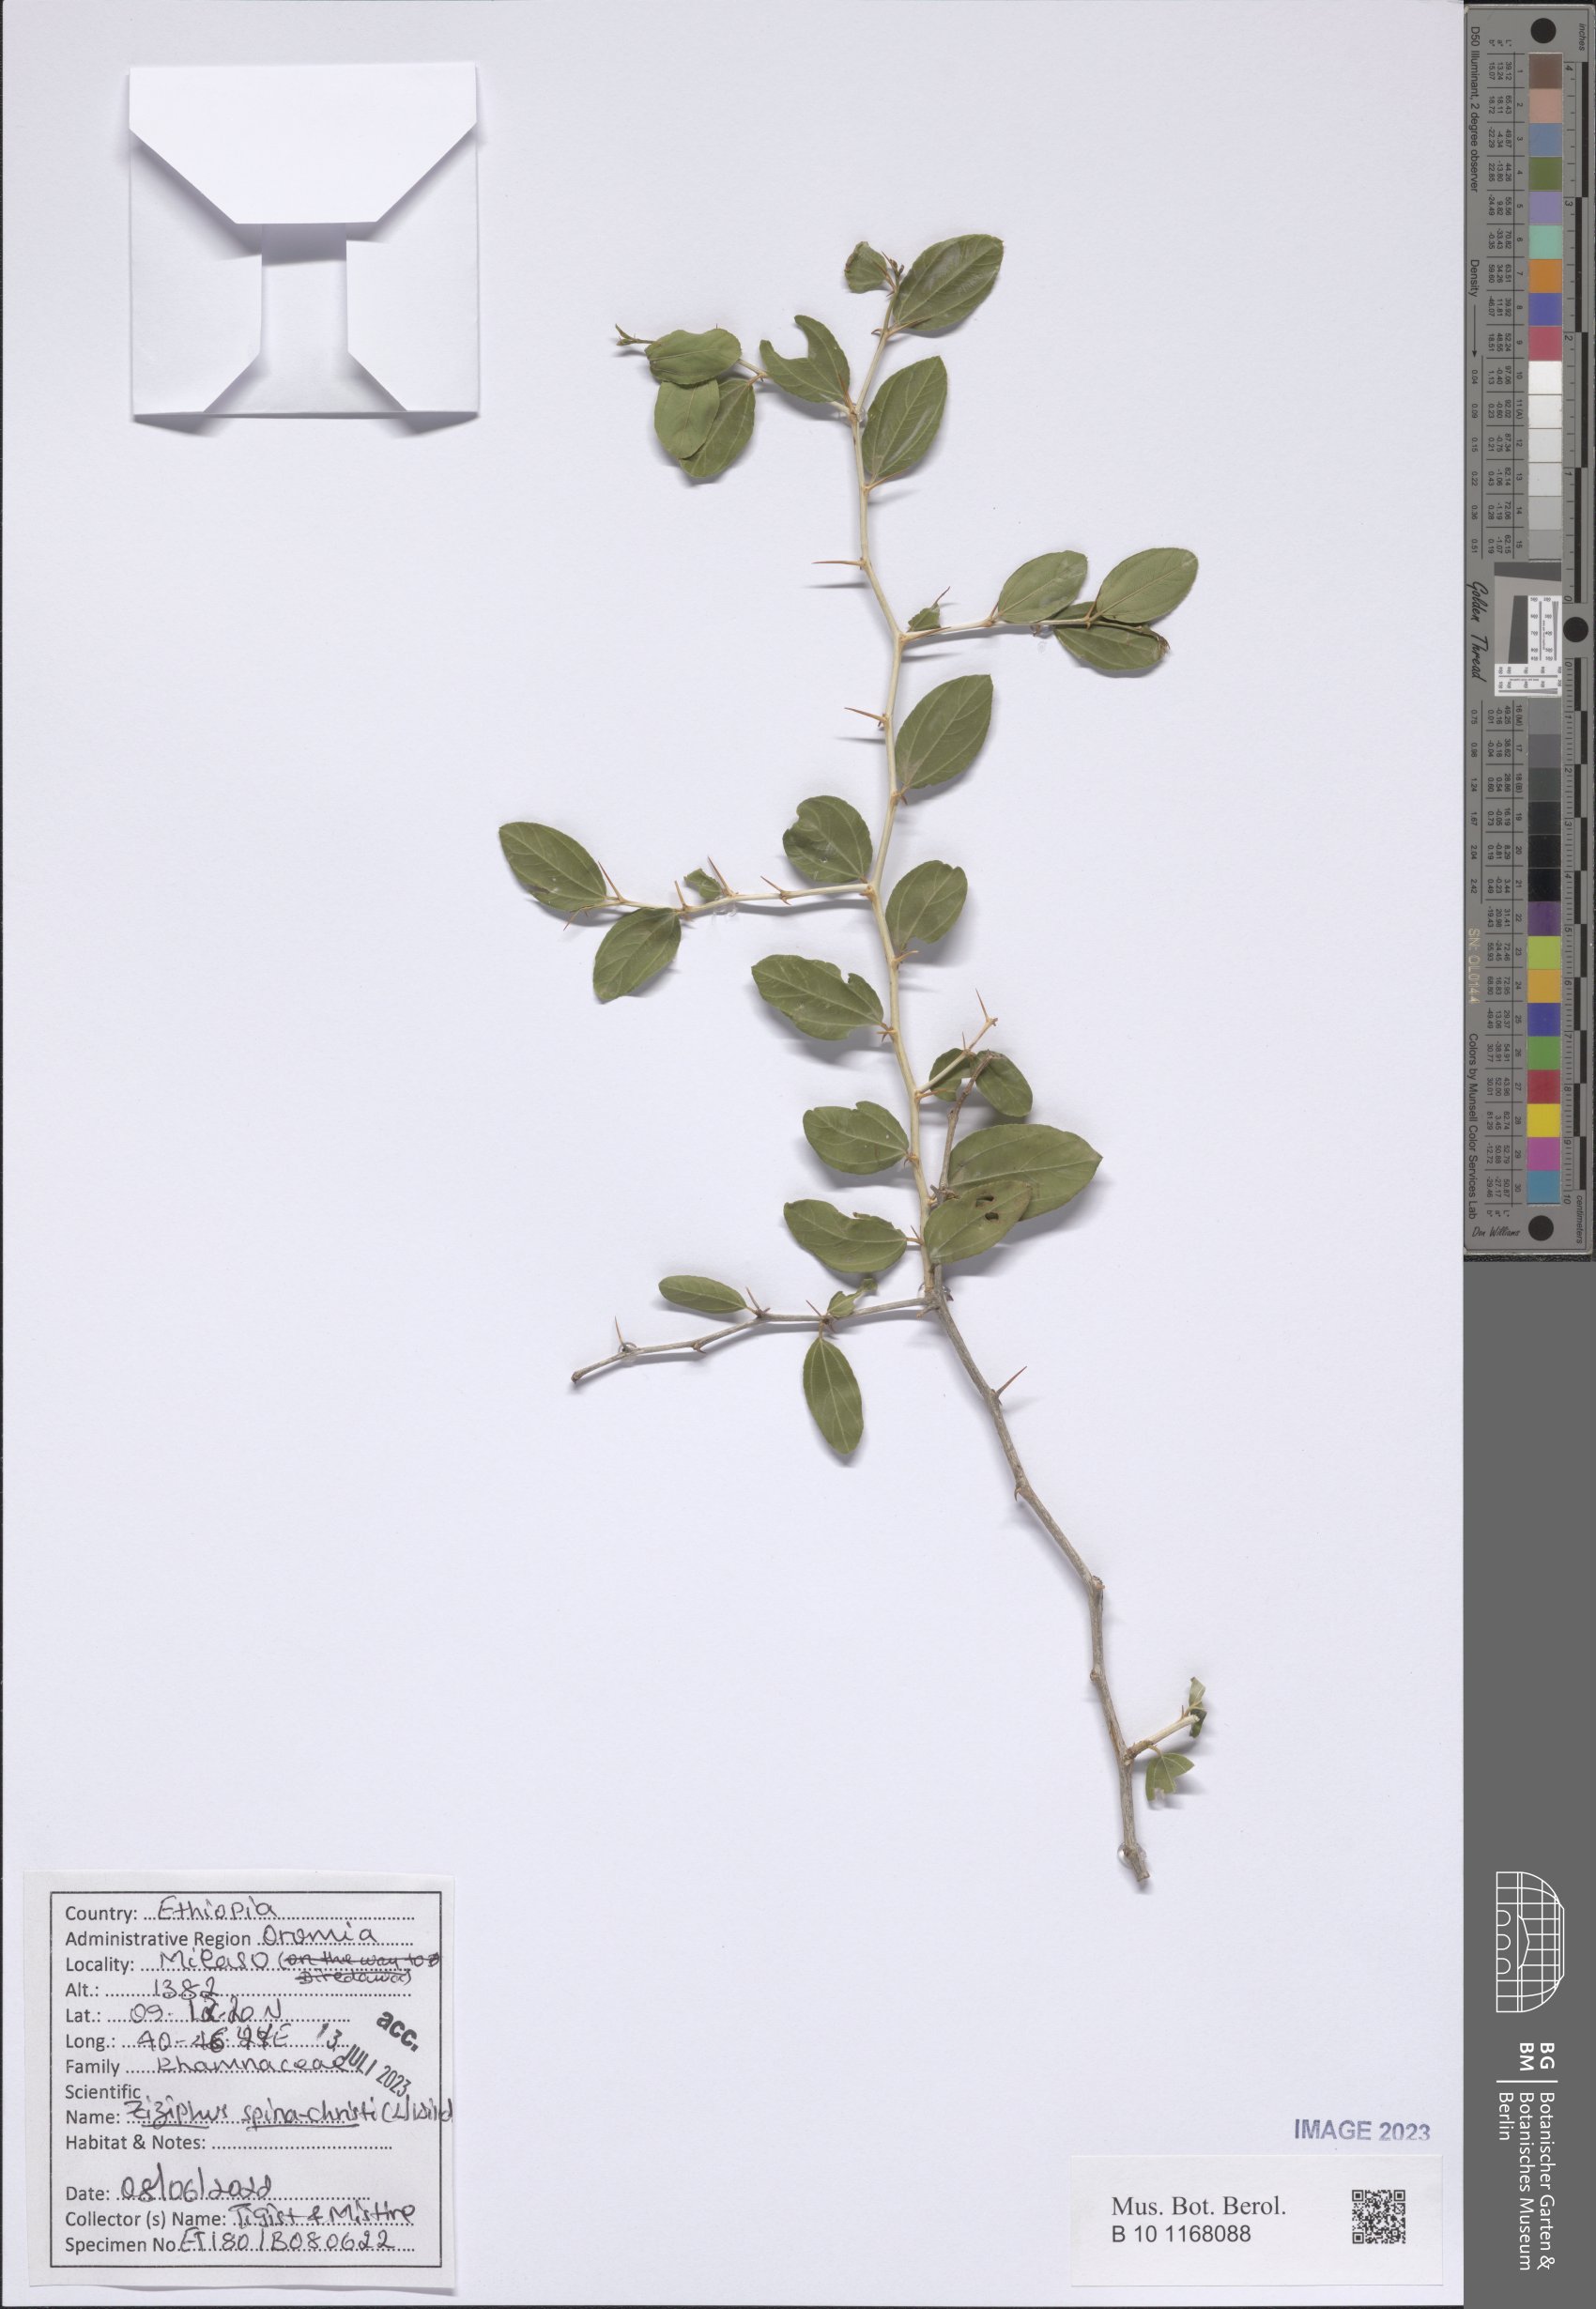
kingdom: Plantae
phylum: Tracheophyta
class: Magnoliopsida
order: Rosales
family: Rhamnaceae
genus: Ziziphus
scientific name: Ziziphus spina-christi
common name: Syrian christ-thorn
